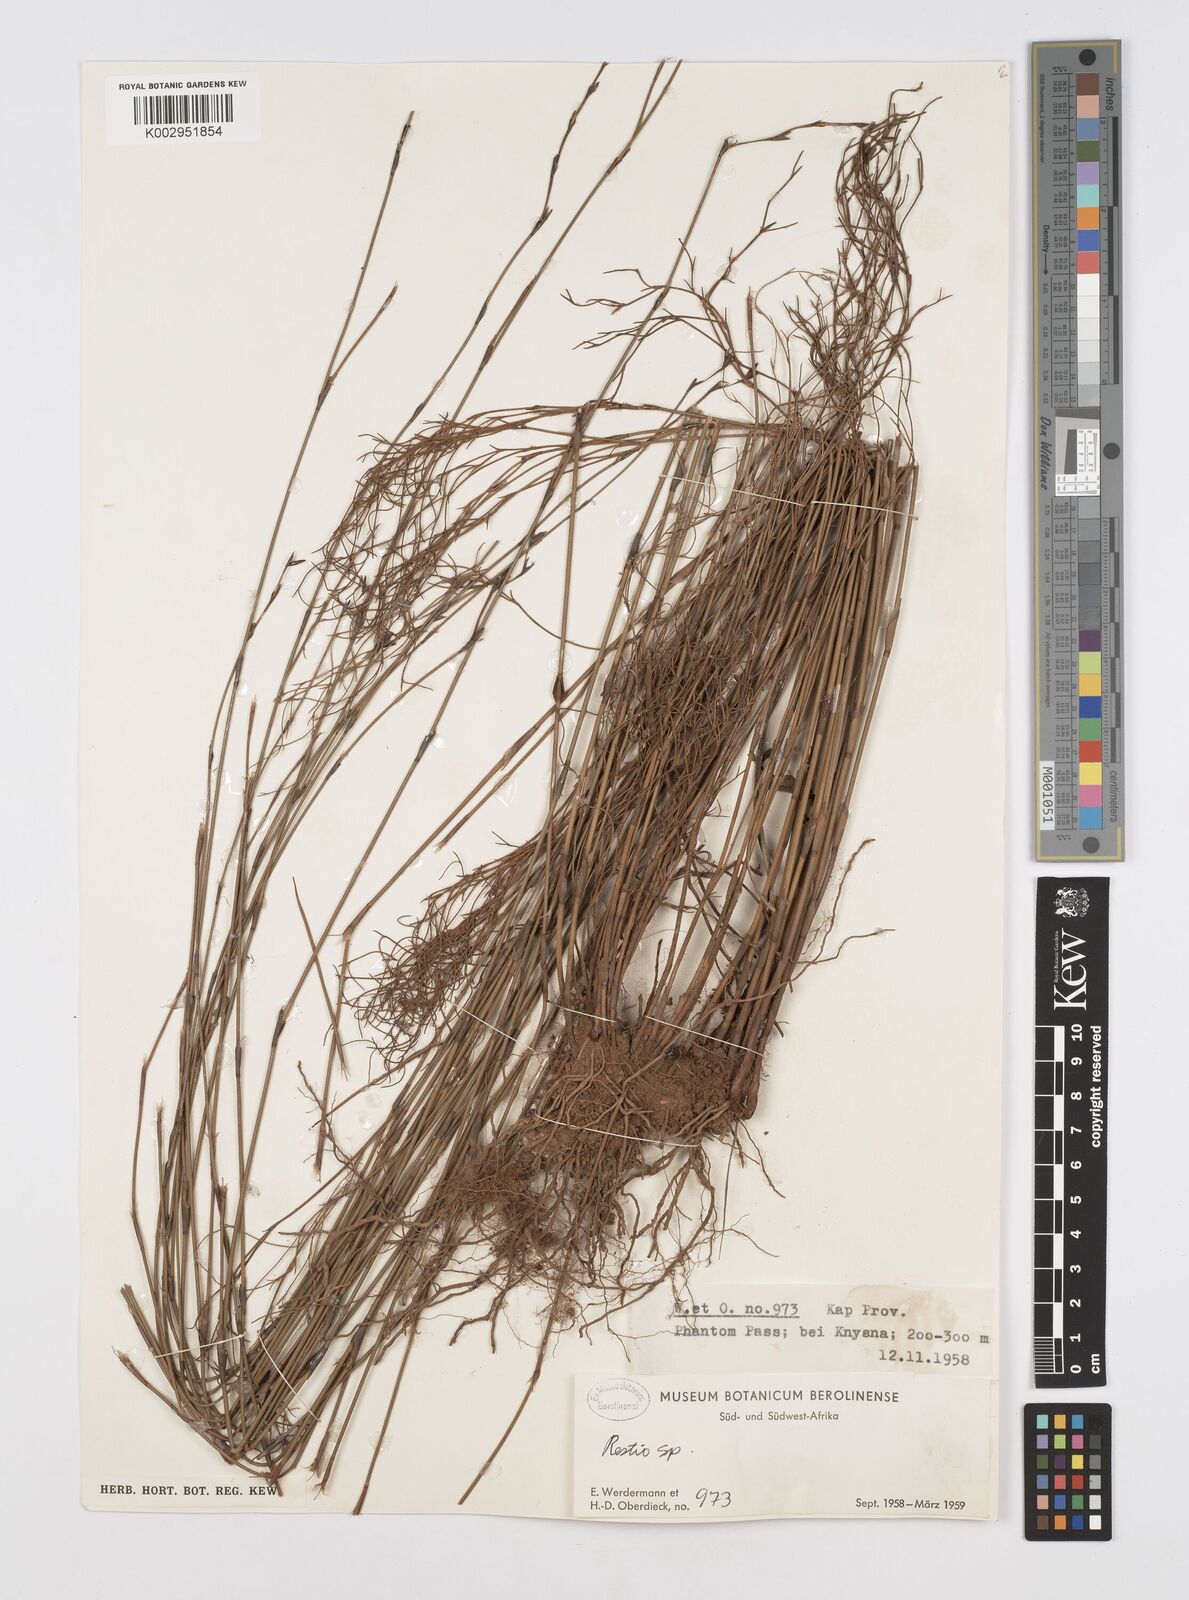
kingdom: Plantae
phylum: Tracheophyta
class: Liliopsida
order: Poales
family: Restionaceae
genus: Restio
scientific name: Restio
